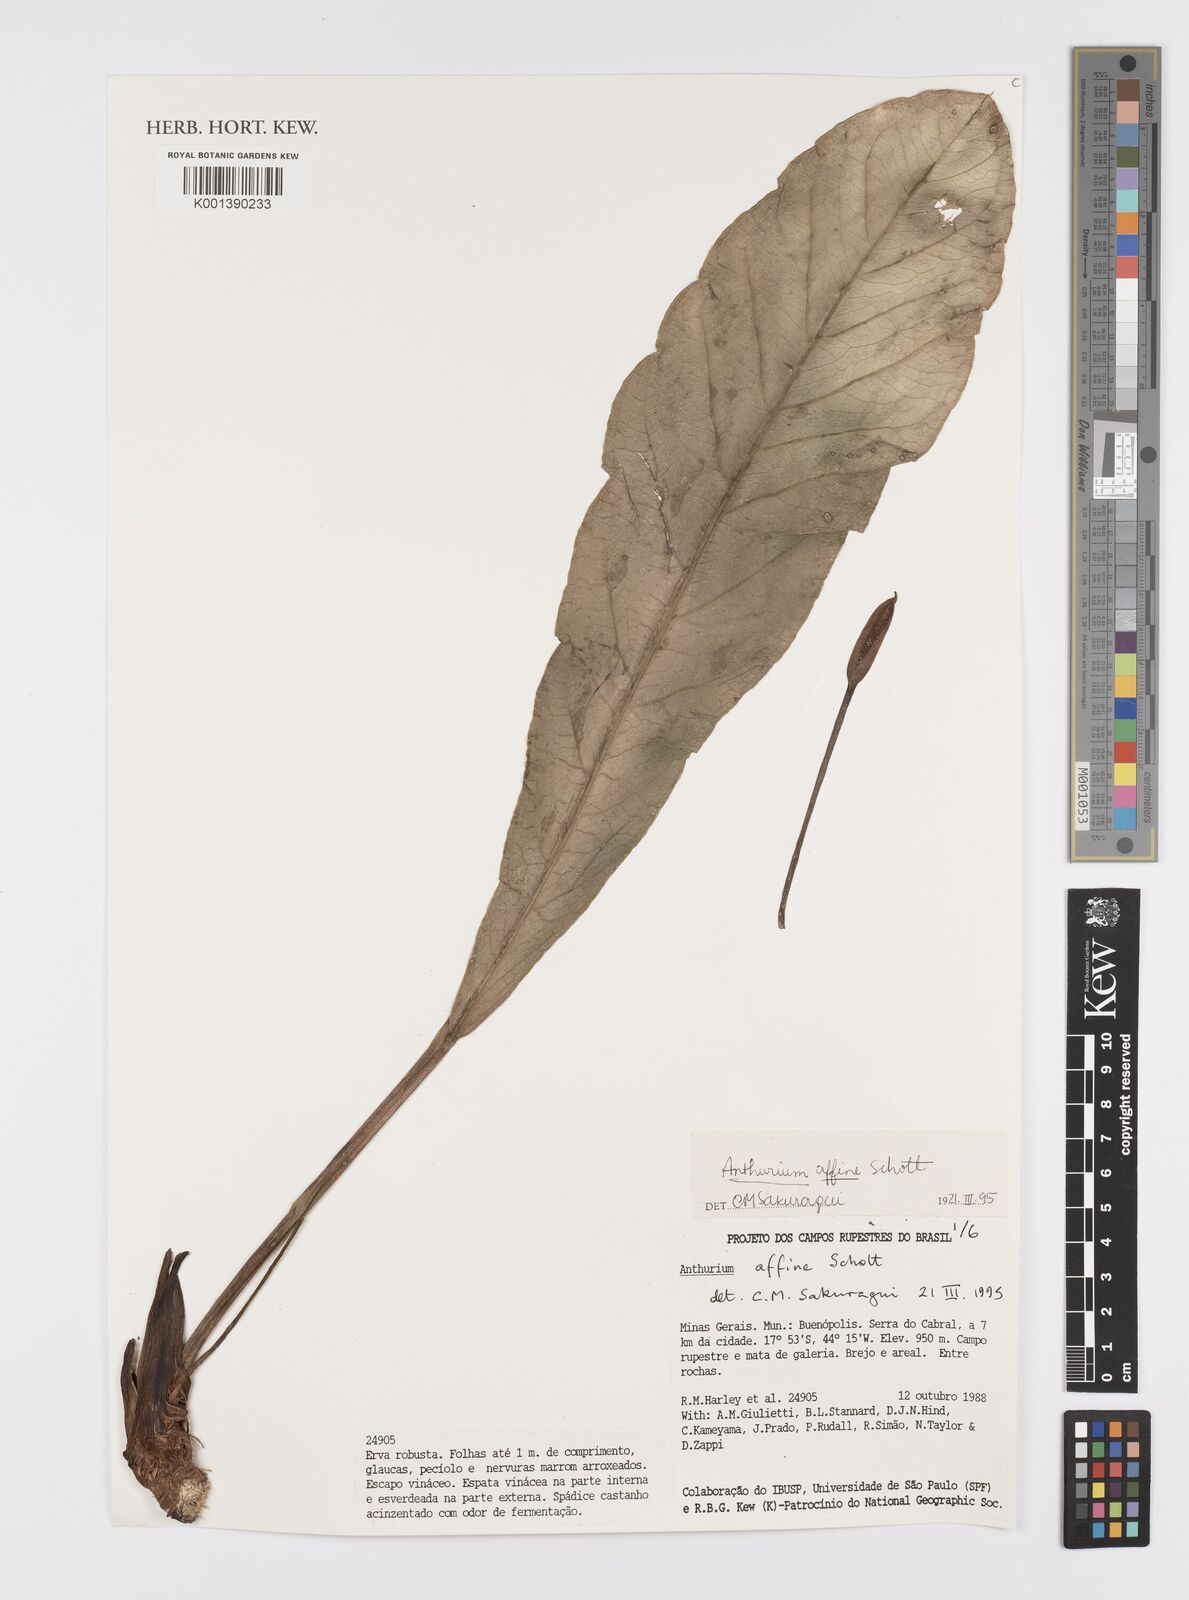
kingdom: Plantae
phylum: Tracheophyta
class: Liliopsida
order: Alismatales
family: Araceae
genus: Anthurium
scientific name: Anthurium affine
